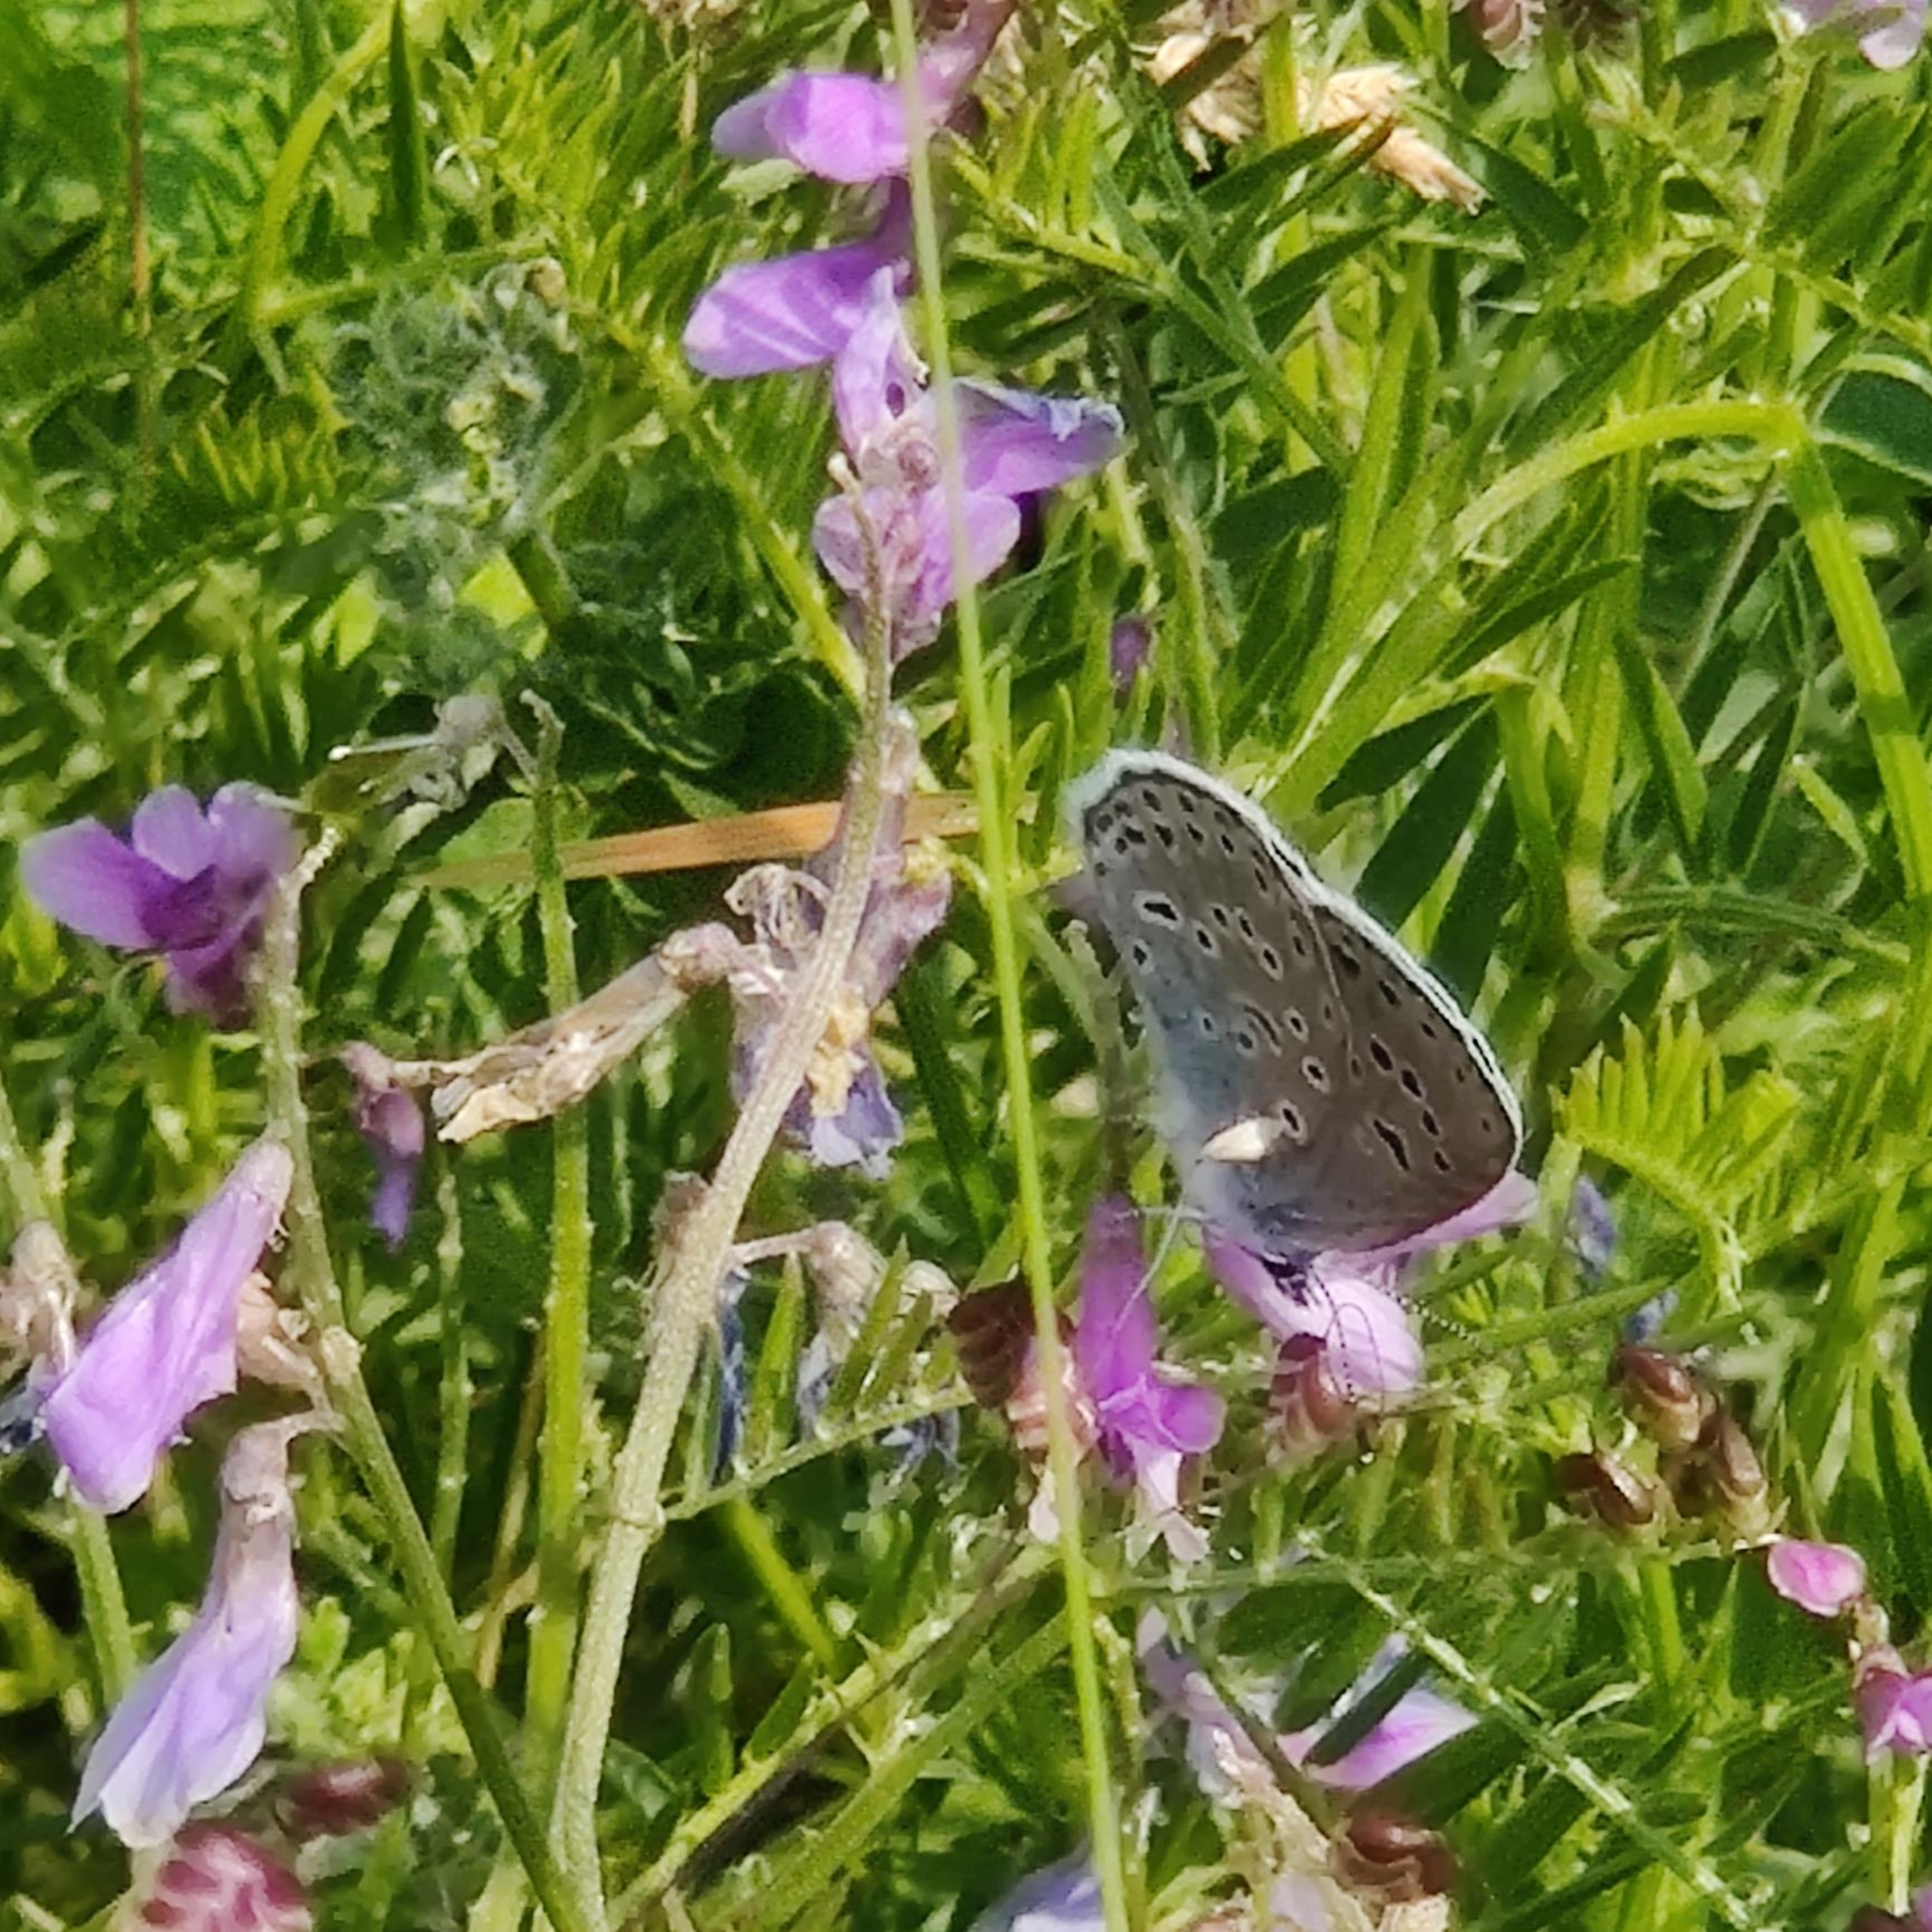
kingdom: Animalia
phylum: Arthropoda
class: Insecta
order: Lepidoptera
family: Lycaenidae
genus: Maculinea
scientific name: Maculinea arion
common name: Sortplettet blåfugl
